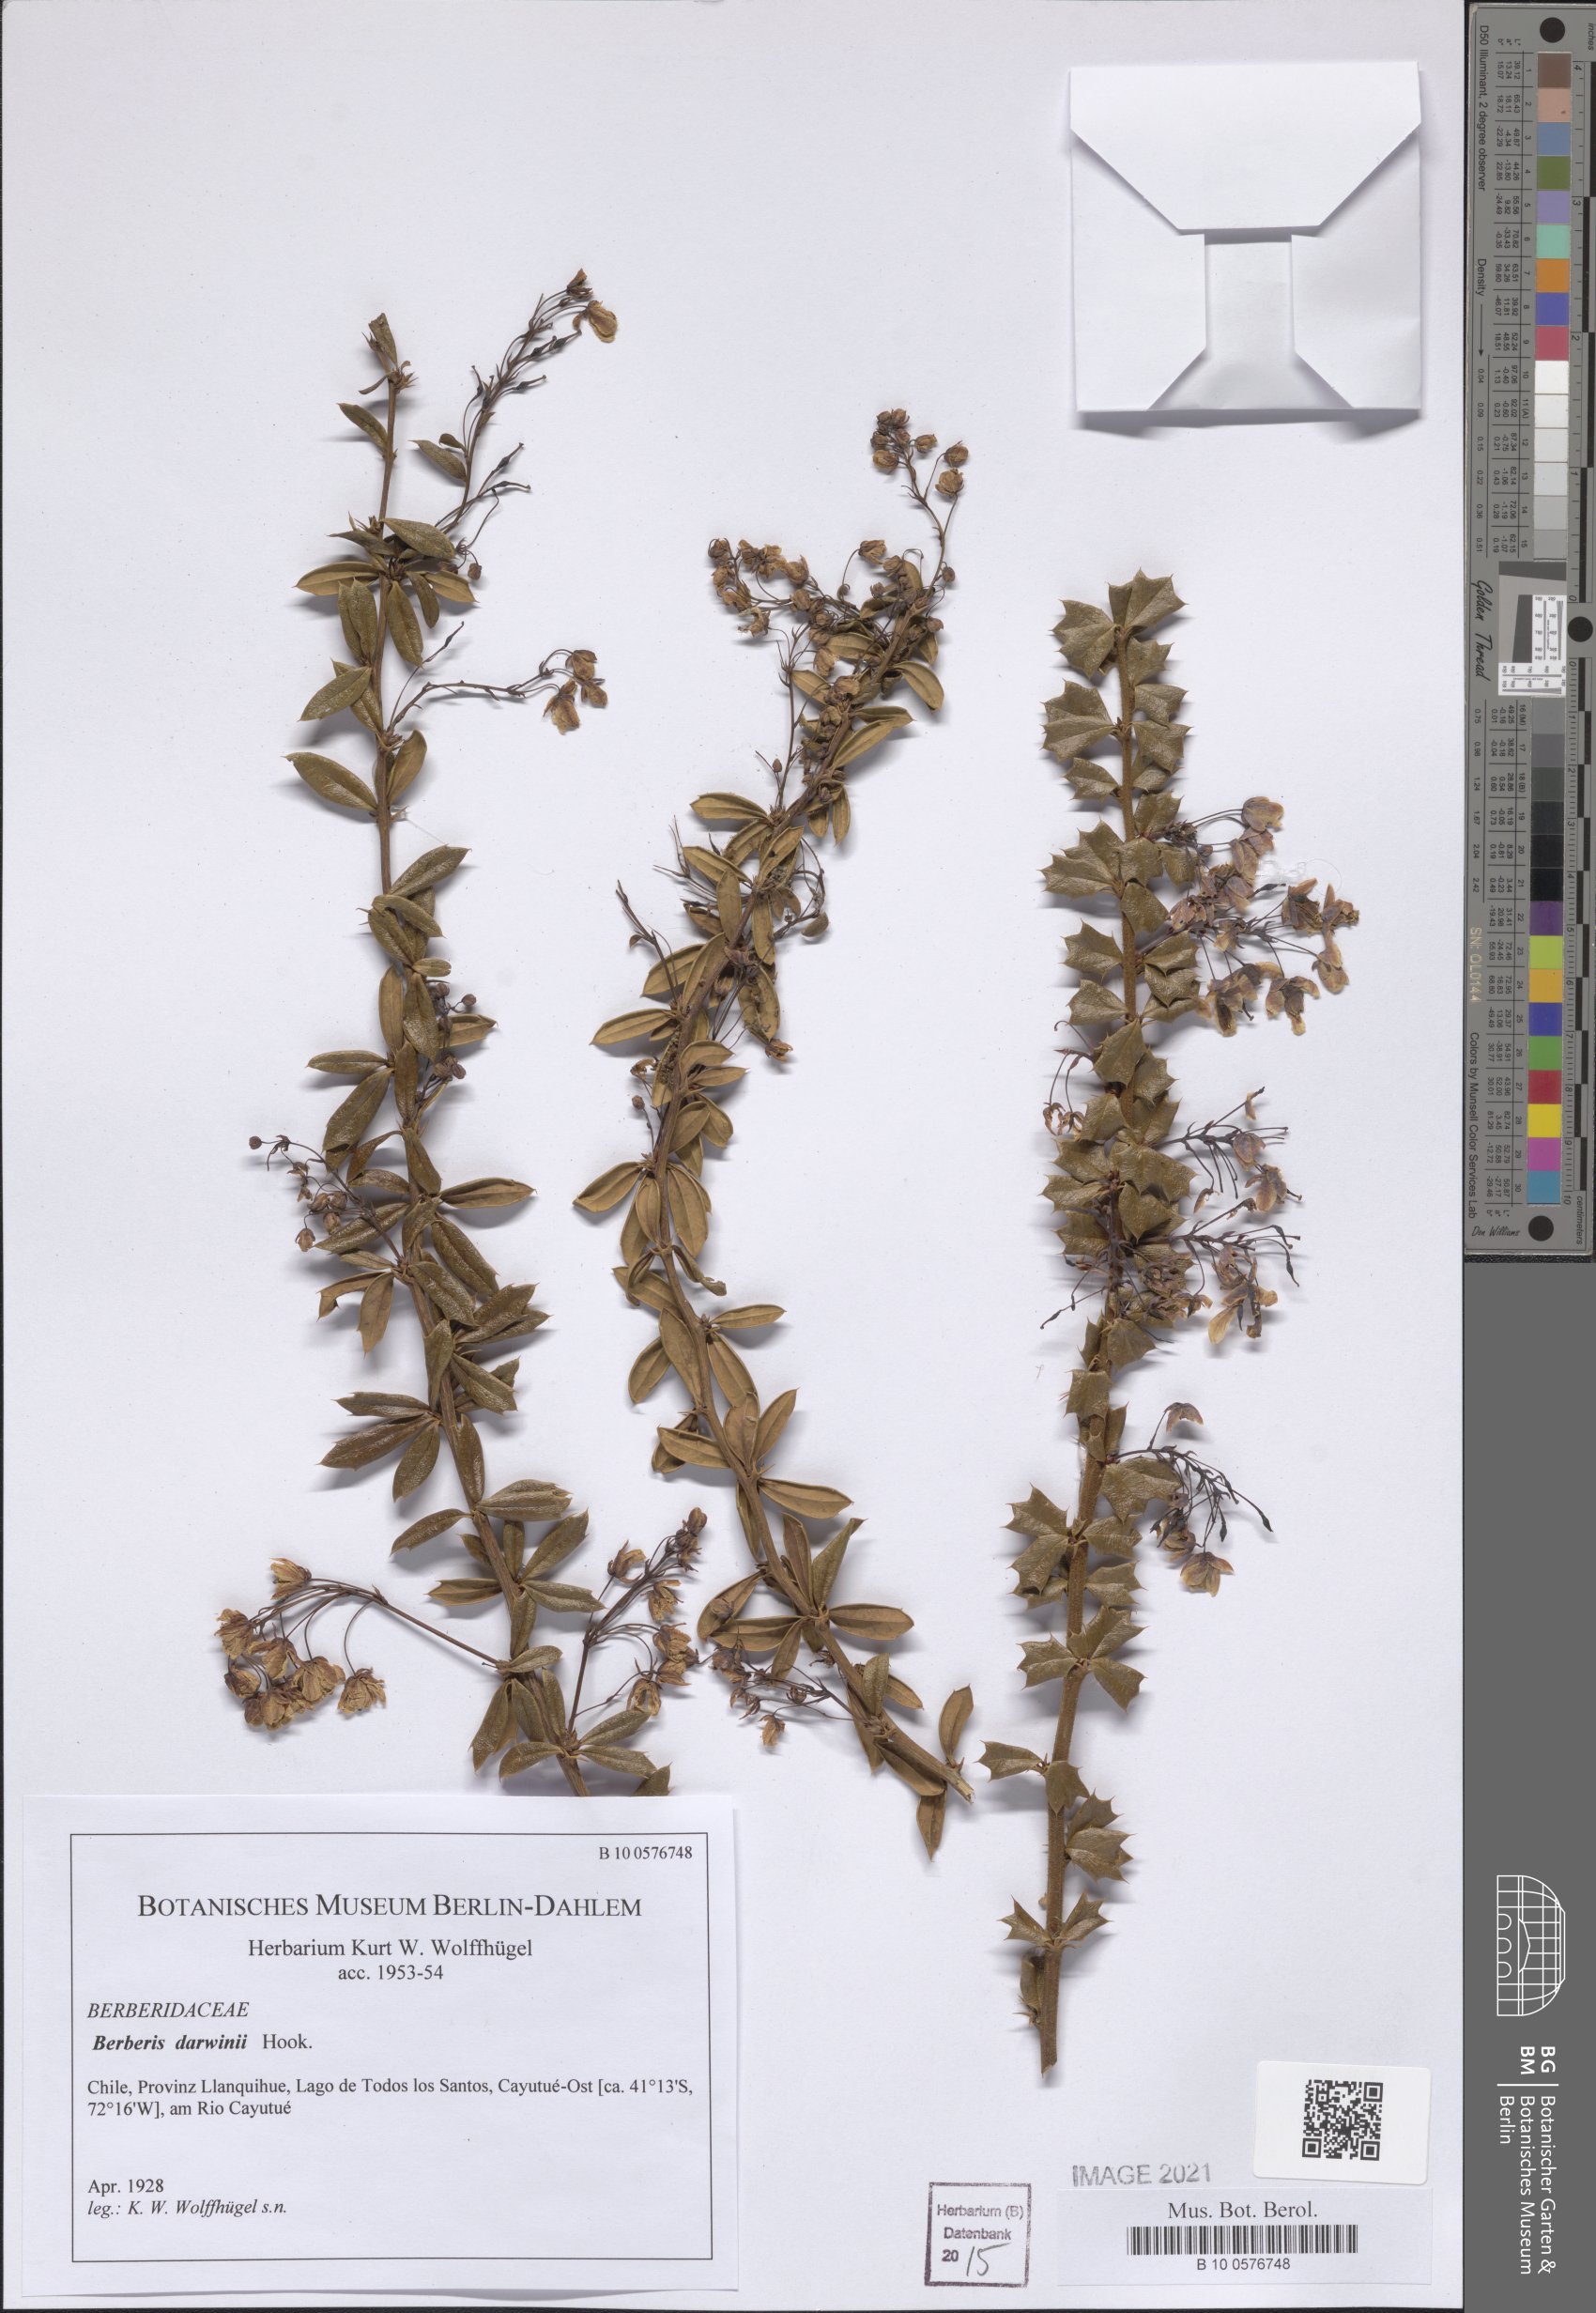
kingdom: Plantae
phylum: Tracheophyta
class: Magnoliopsida
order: Ranunculales
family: Berberidaceae
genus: Berberis
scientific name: Berberis darwinii
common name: Darwin's barberry
